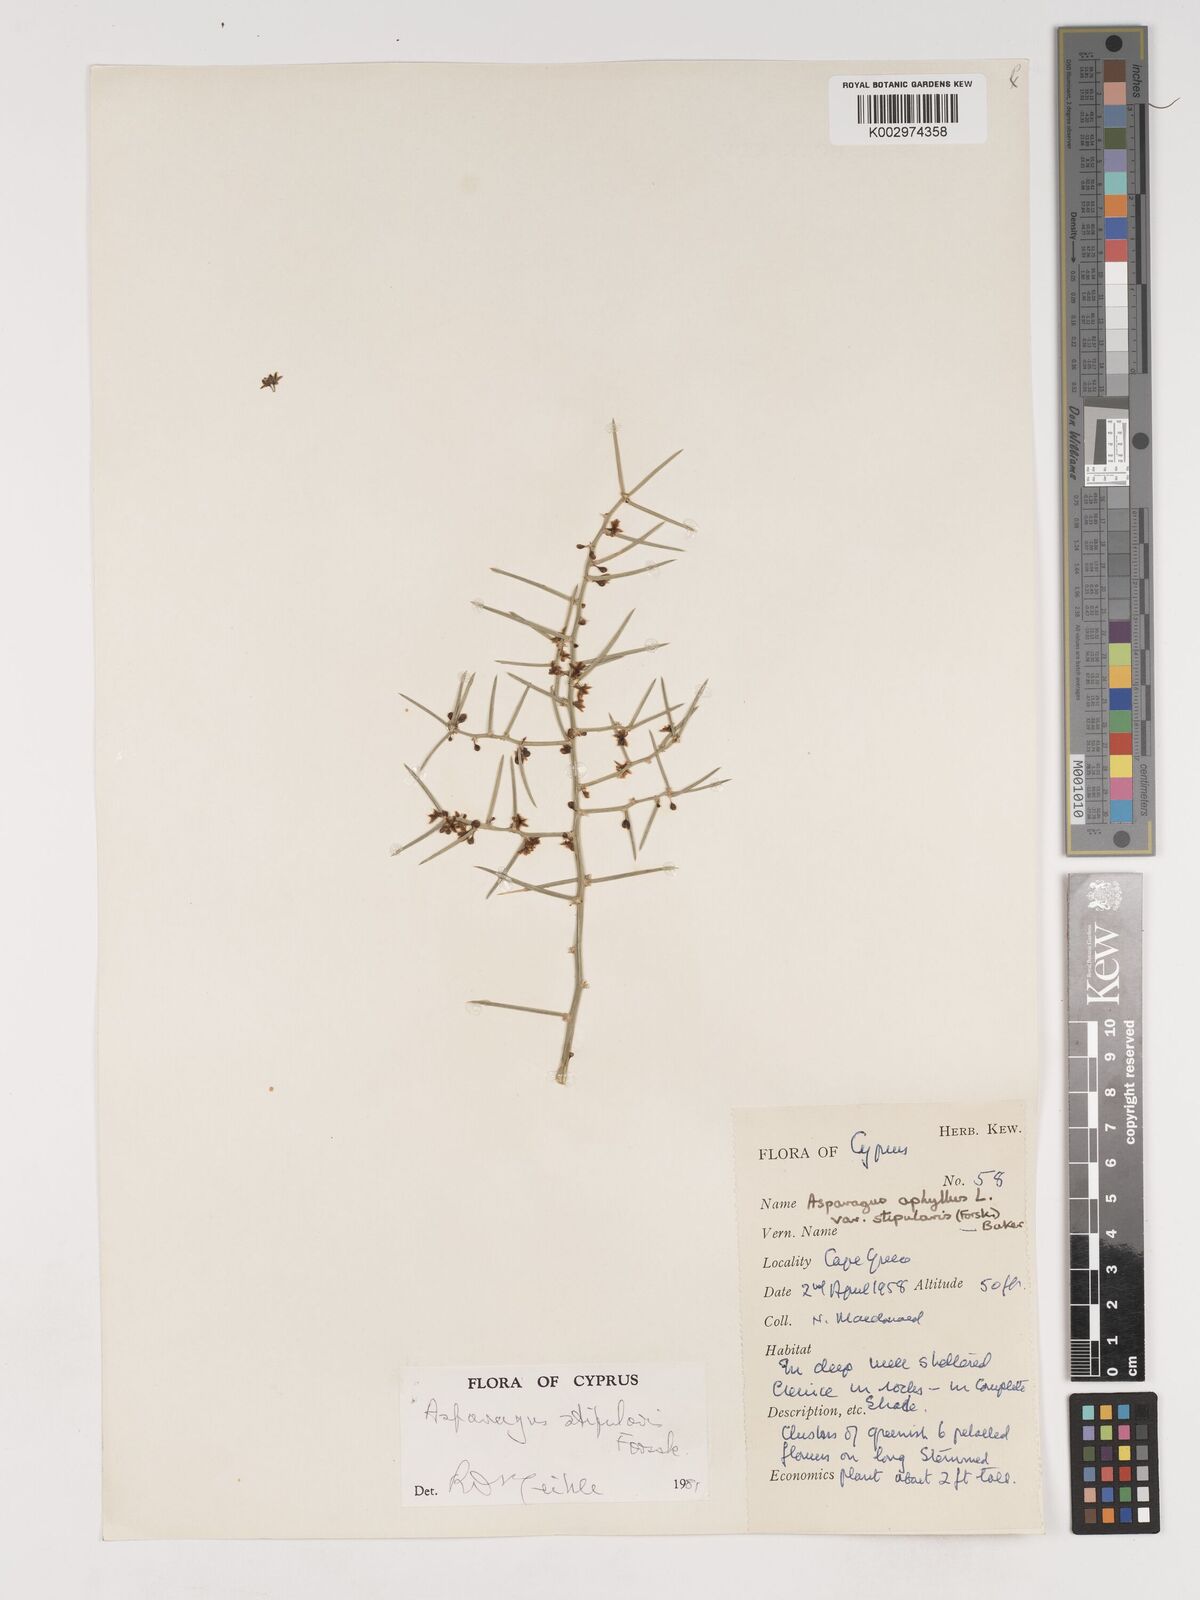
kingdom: Plantae
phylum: Tracheophyta
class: Liliopsida
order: Asparagales
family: Asparagaceae
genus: Asparagus
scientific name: Asparagus aphyllus
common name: Mediterranean asparagus
